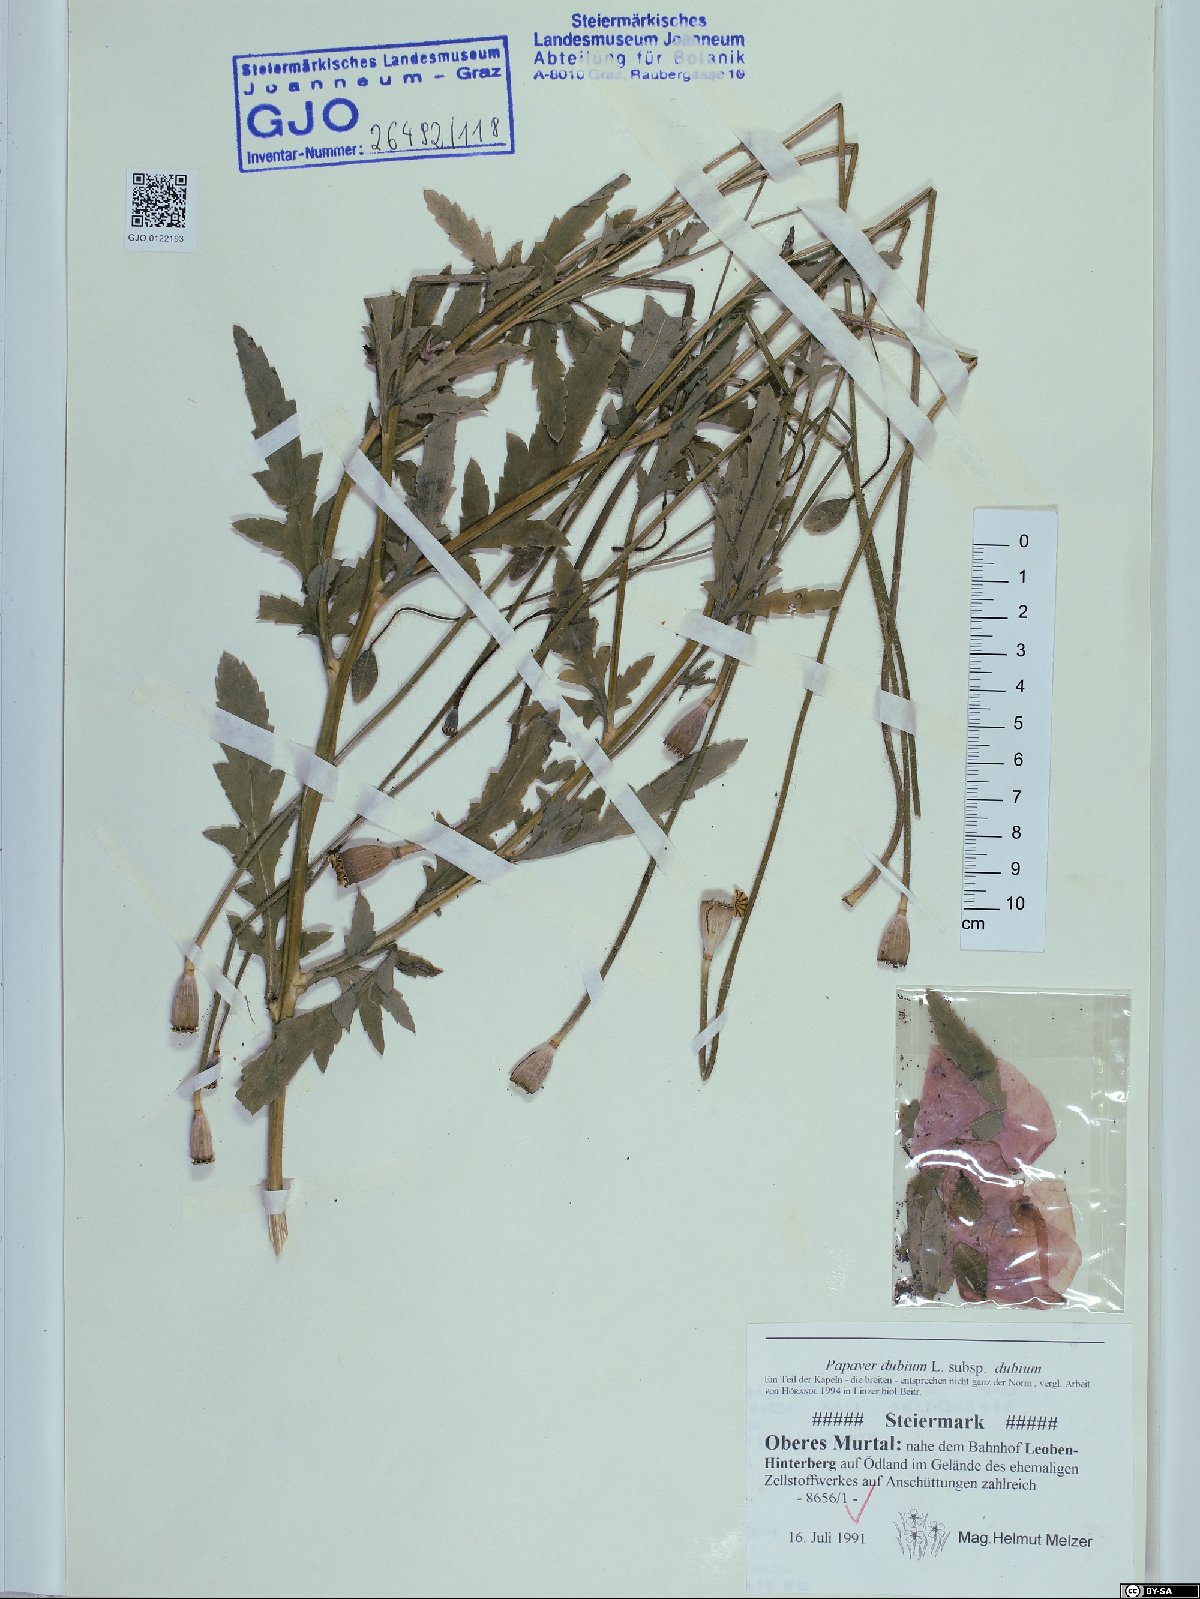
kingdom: Plantae
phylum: Tracheophyta
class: Magnoliopsida
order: Ranunculales
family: Papaveraceae
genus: Papaver
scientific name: Papaver dubium
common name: Long-headed poppy
